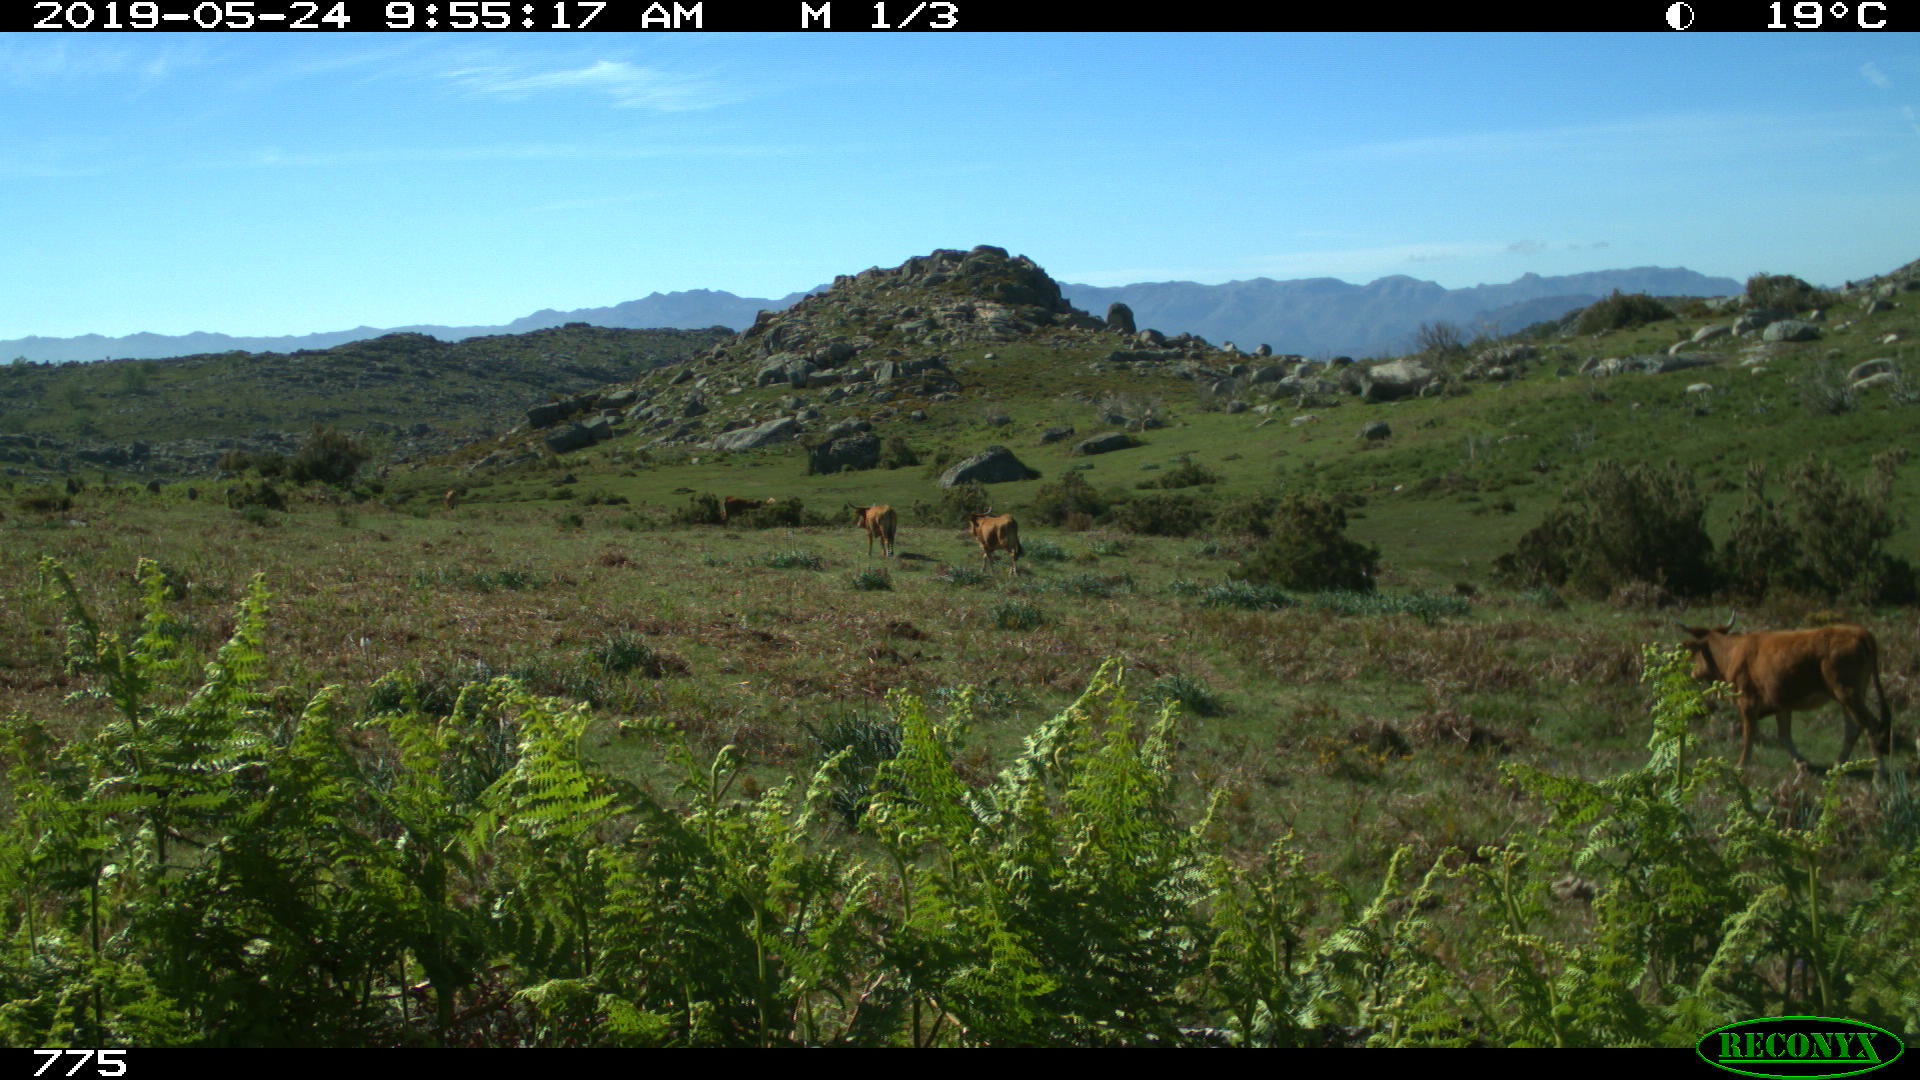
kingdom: Animalia
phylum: Chordata
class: Mammalia
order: Artiodactyla
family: Bovidae
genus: Bos
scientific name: Bos taurus
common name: Domesticated cattle
